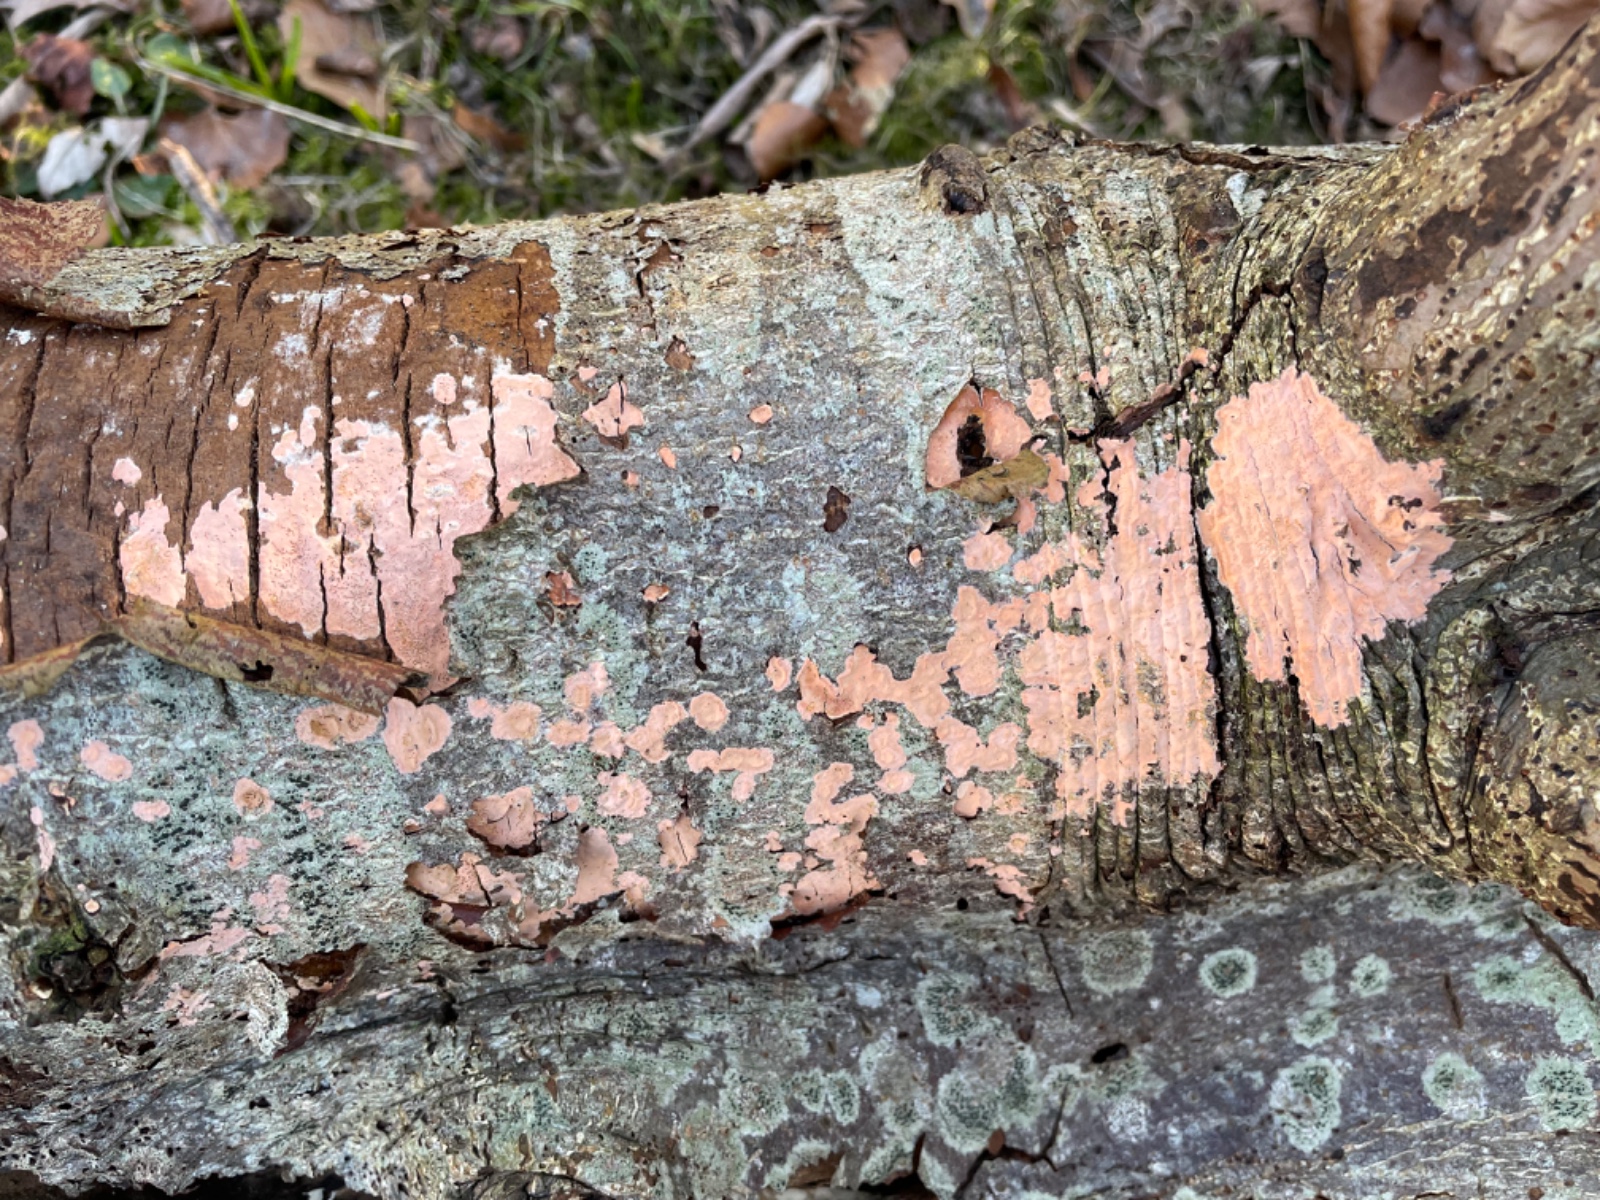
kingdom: Fungi
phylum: Basidiomycota
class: Agaricomycetes
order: Russulales
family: Peniophoraceae
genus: Peniophora
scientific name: Peniophora incarnata
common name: laksefarvet voksskind
